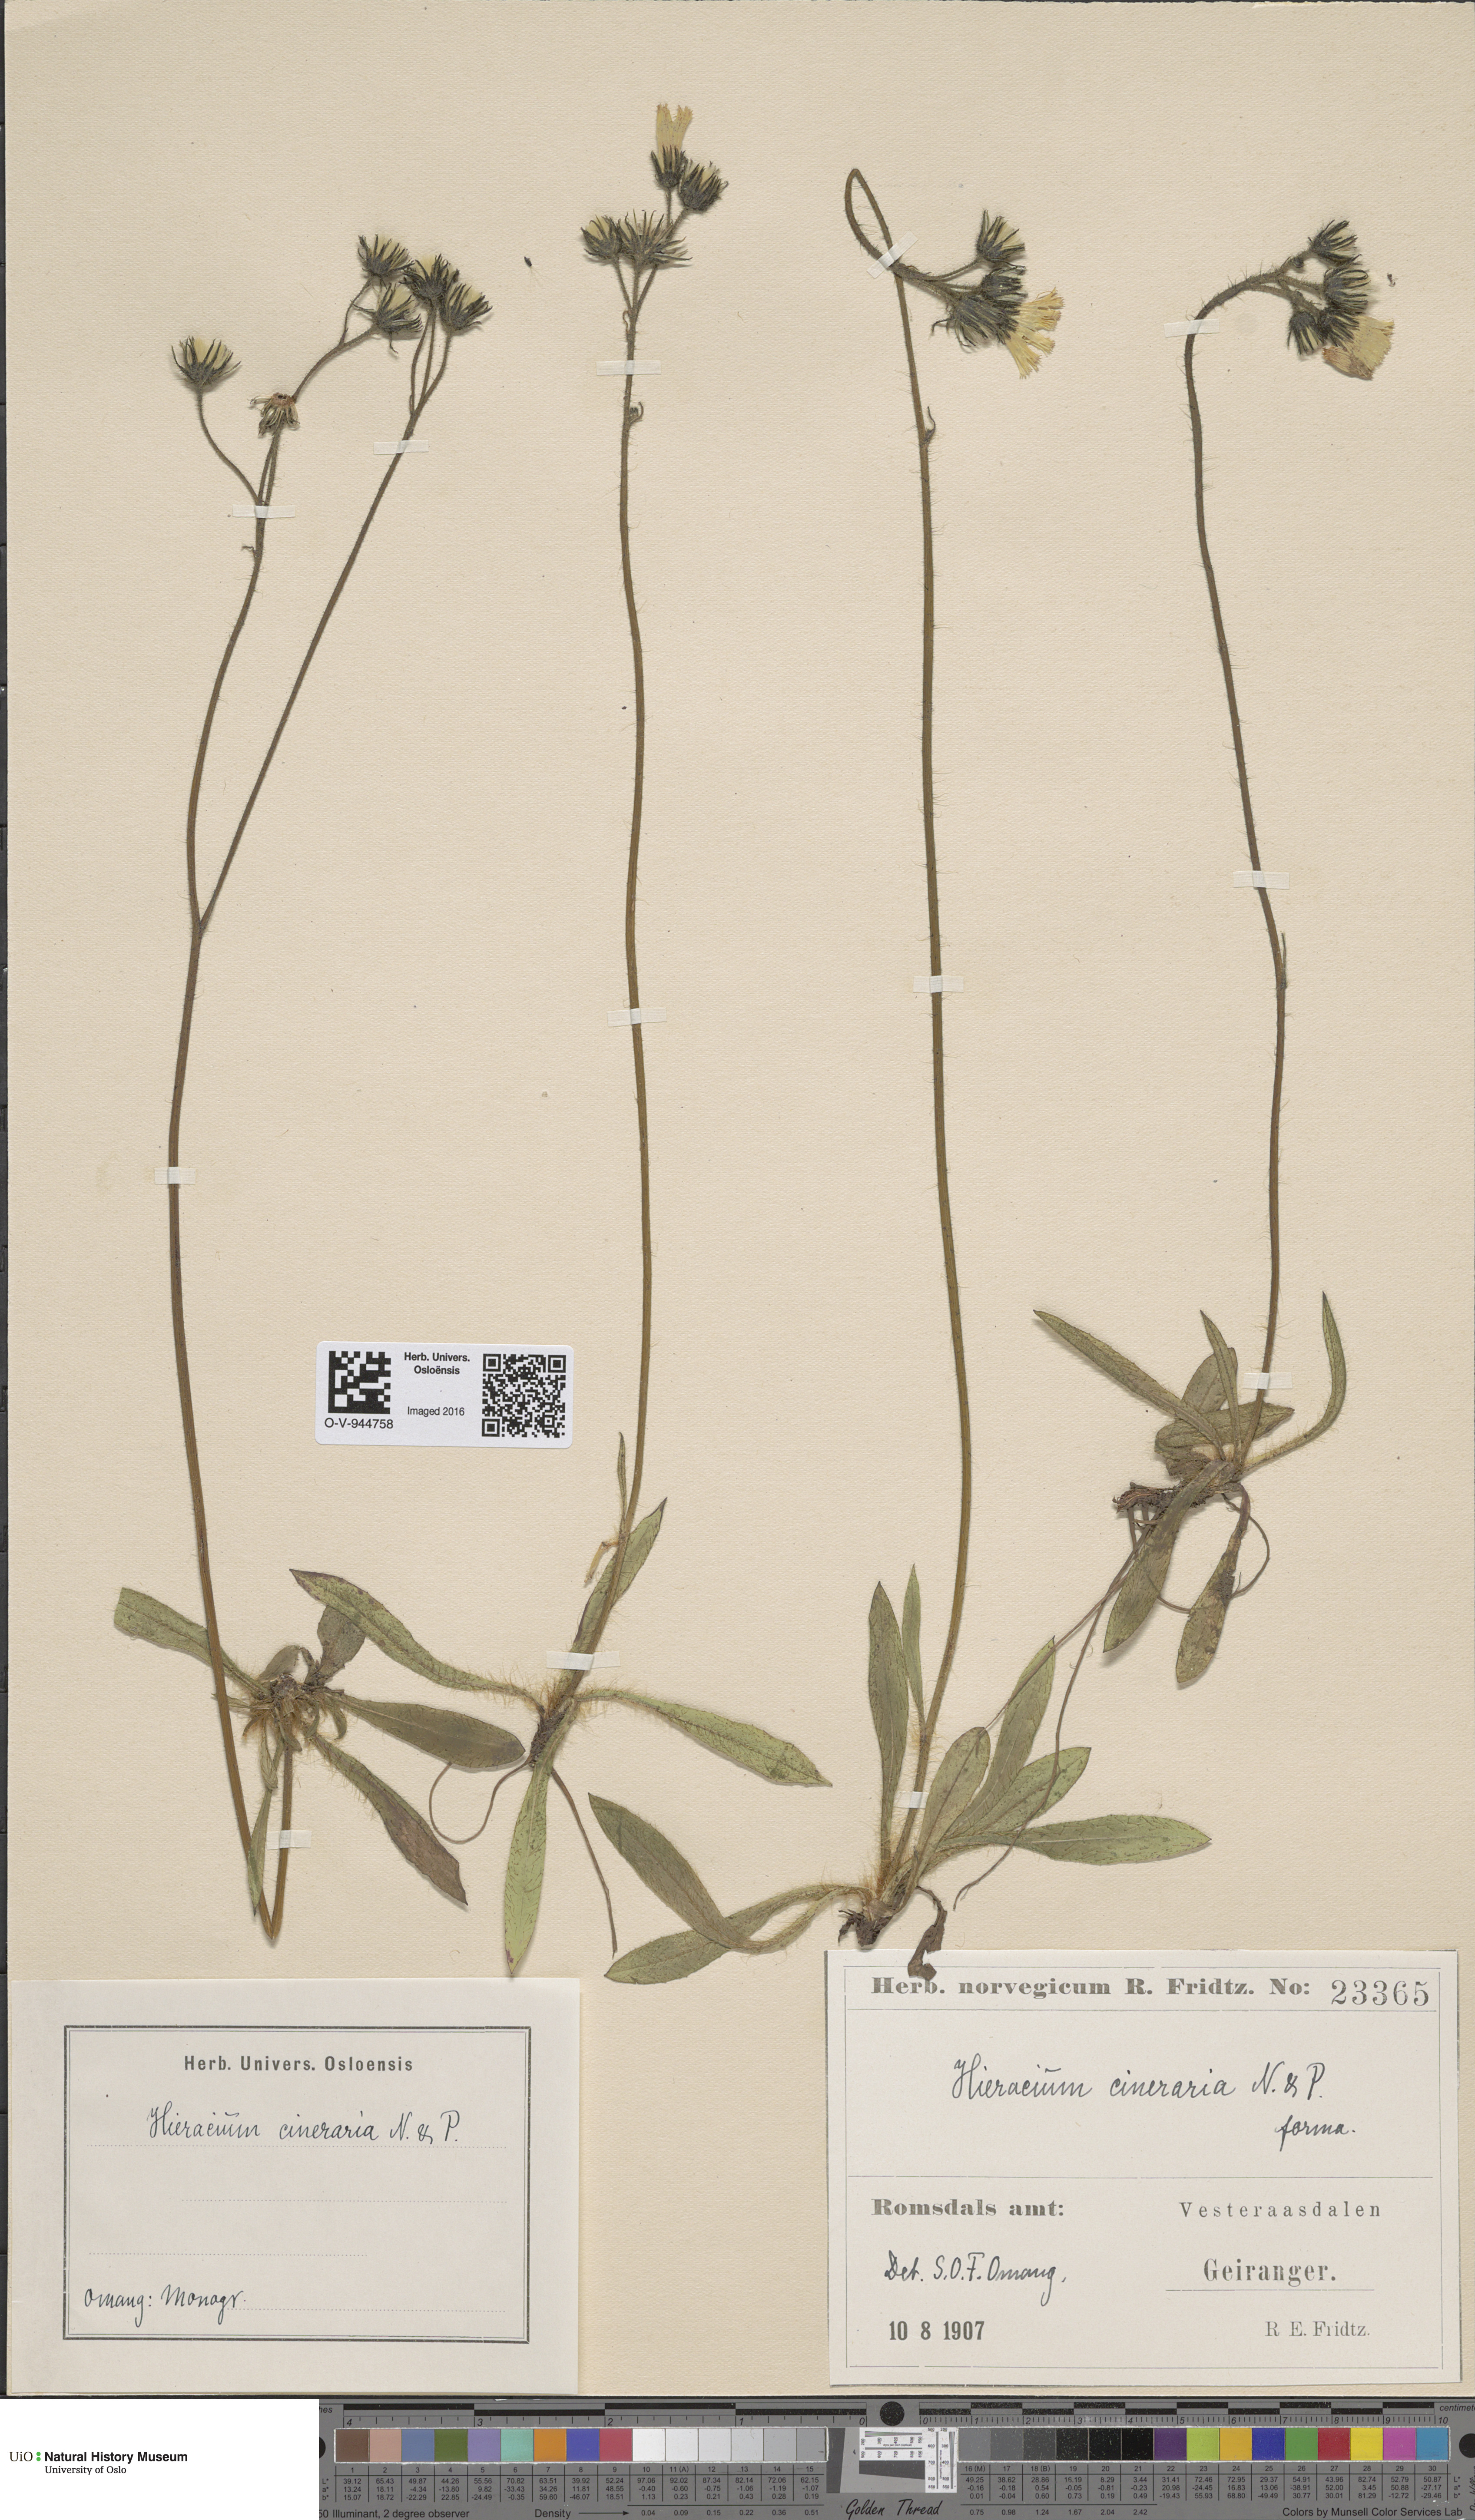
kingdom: Plantae
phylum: Tracheophyta
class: Magnoliopsida
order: Asterales
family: Asteraceae
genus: Pilosella
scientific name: Pilosella moechiadia
